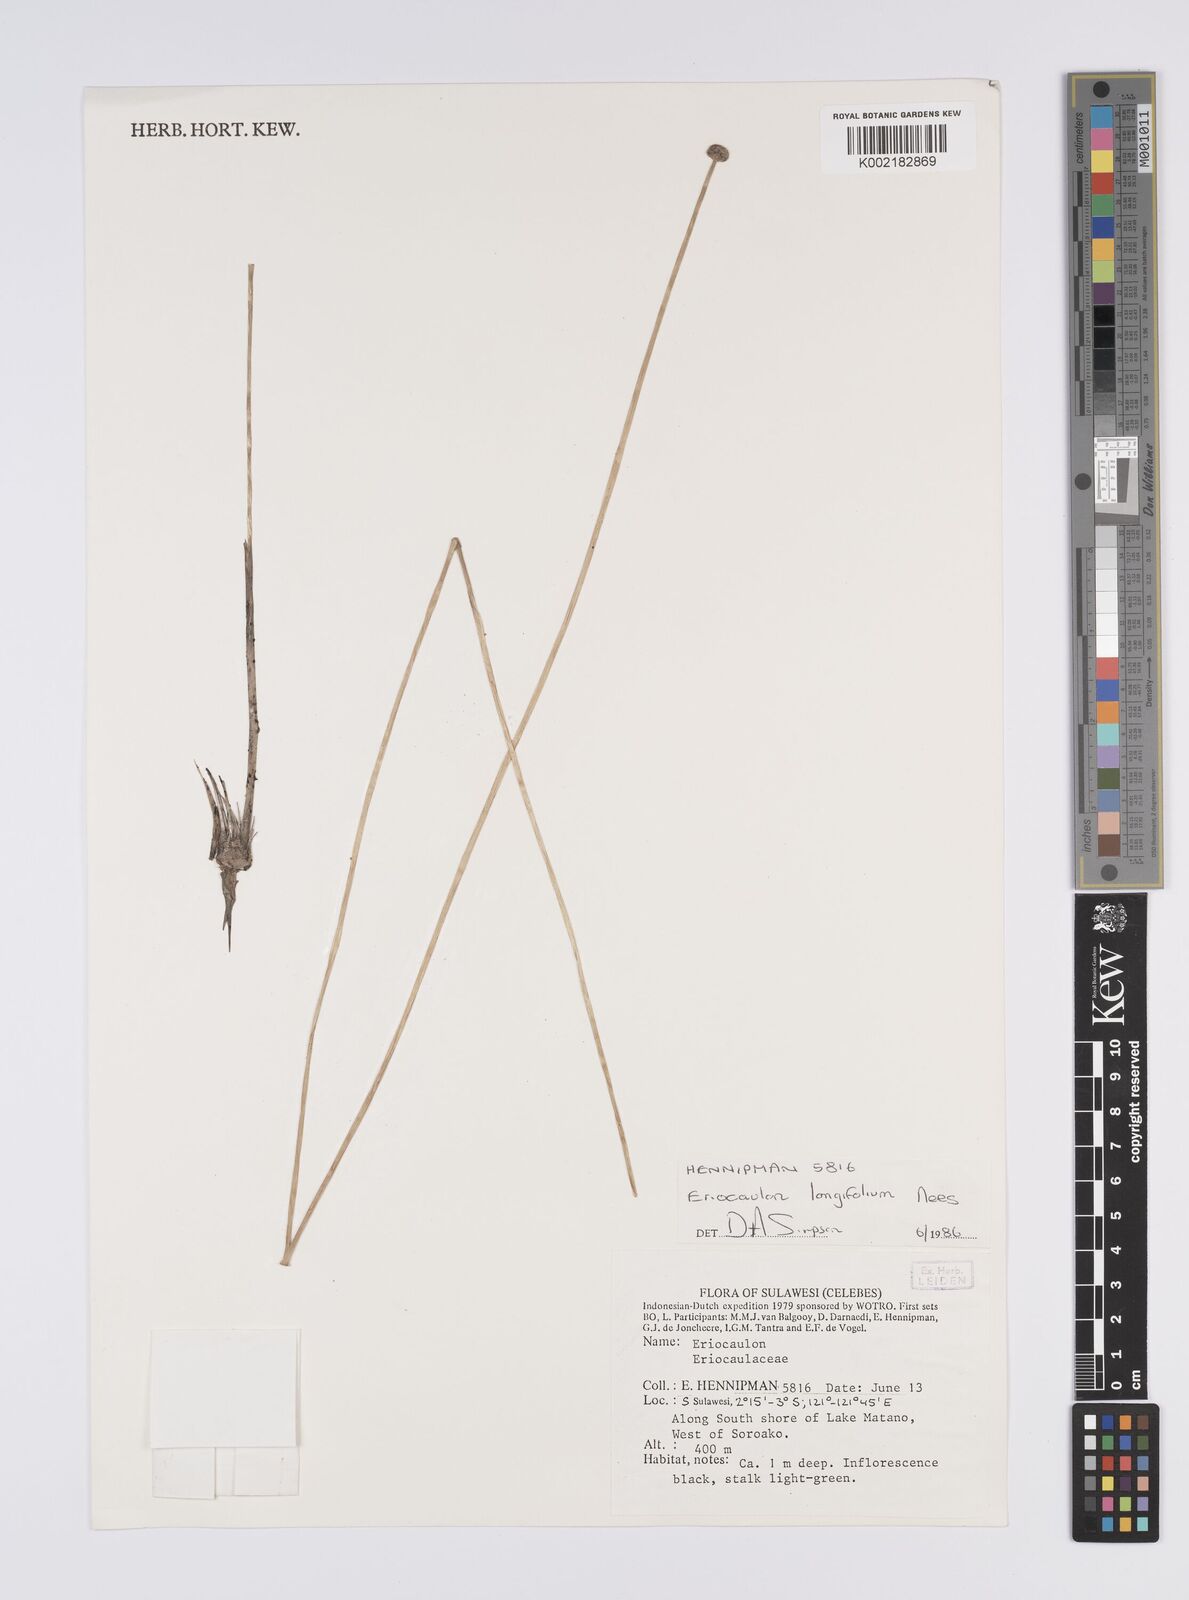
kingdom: Plantae
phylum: Tracheophyta
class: Liliopsida
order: Poales
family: Eriocaulaceae
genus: Eriocaulon
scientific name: Eriocaulon willdenovianum
